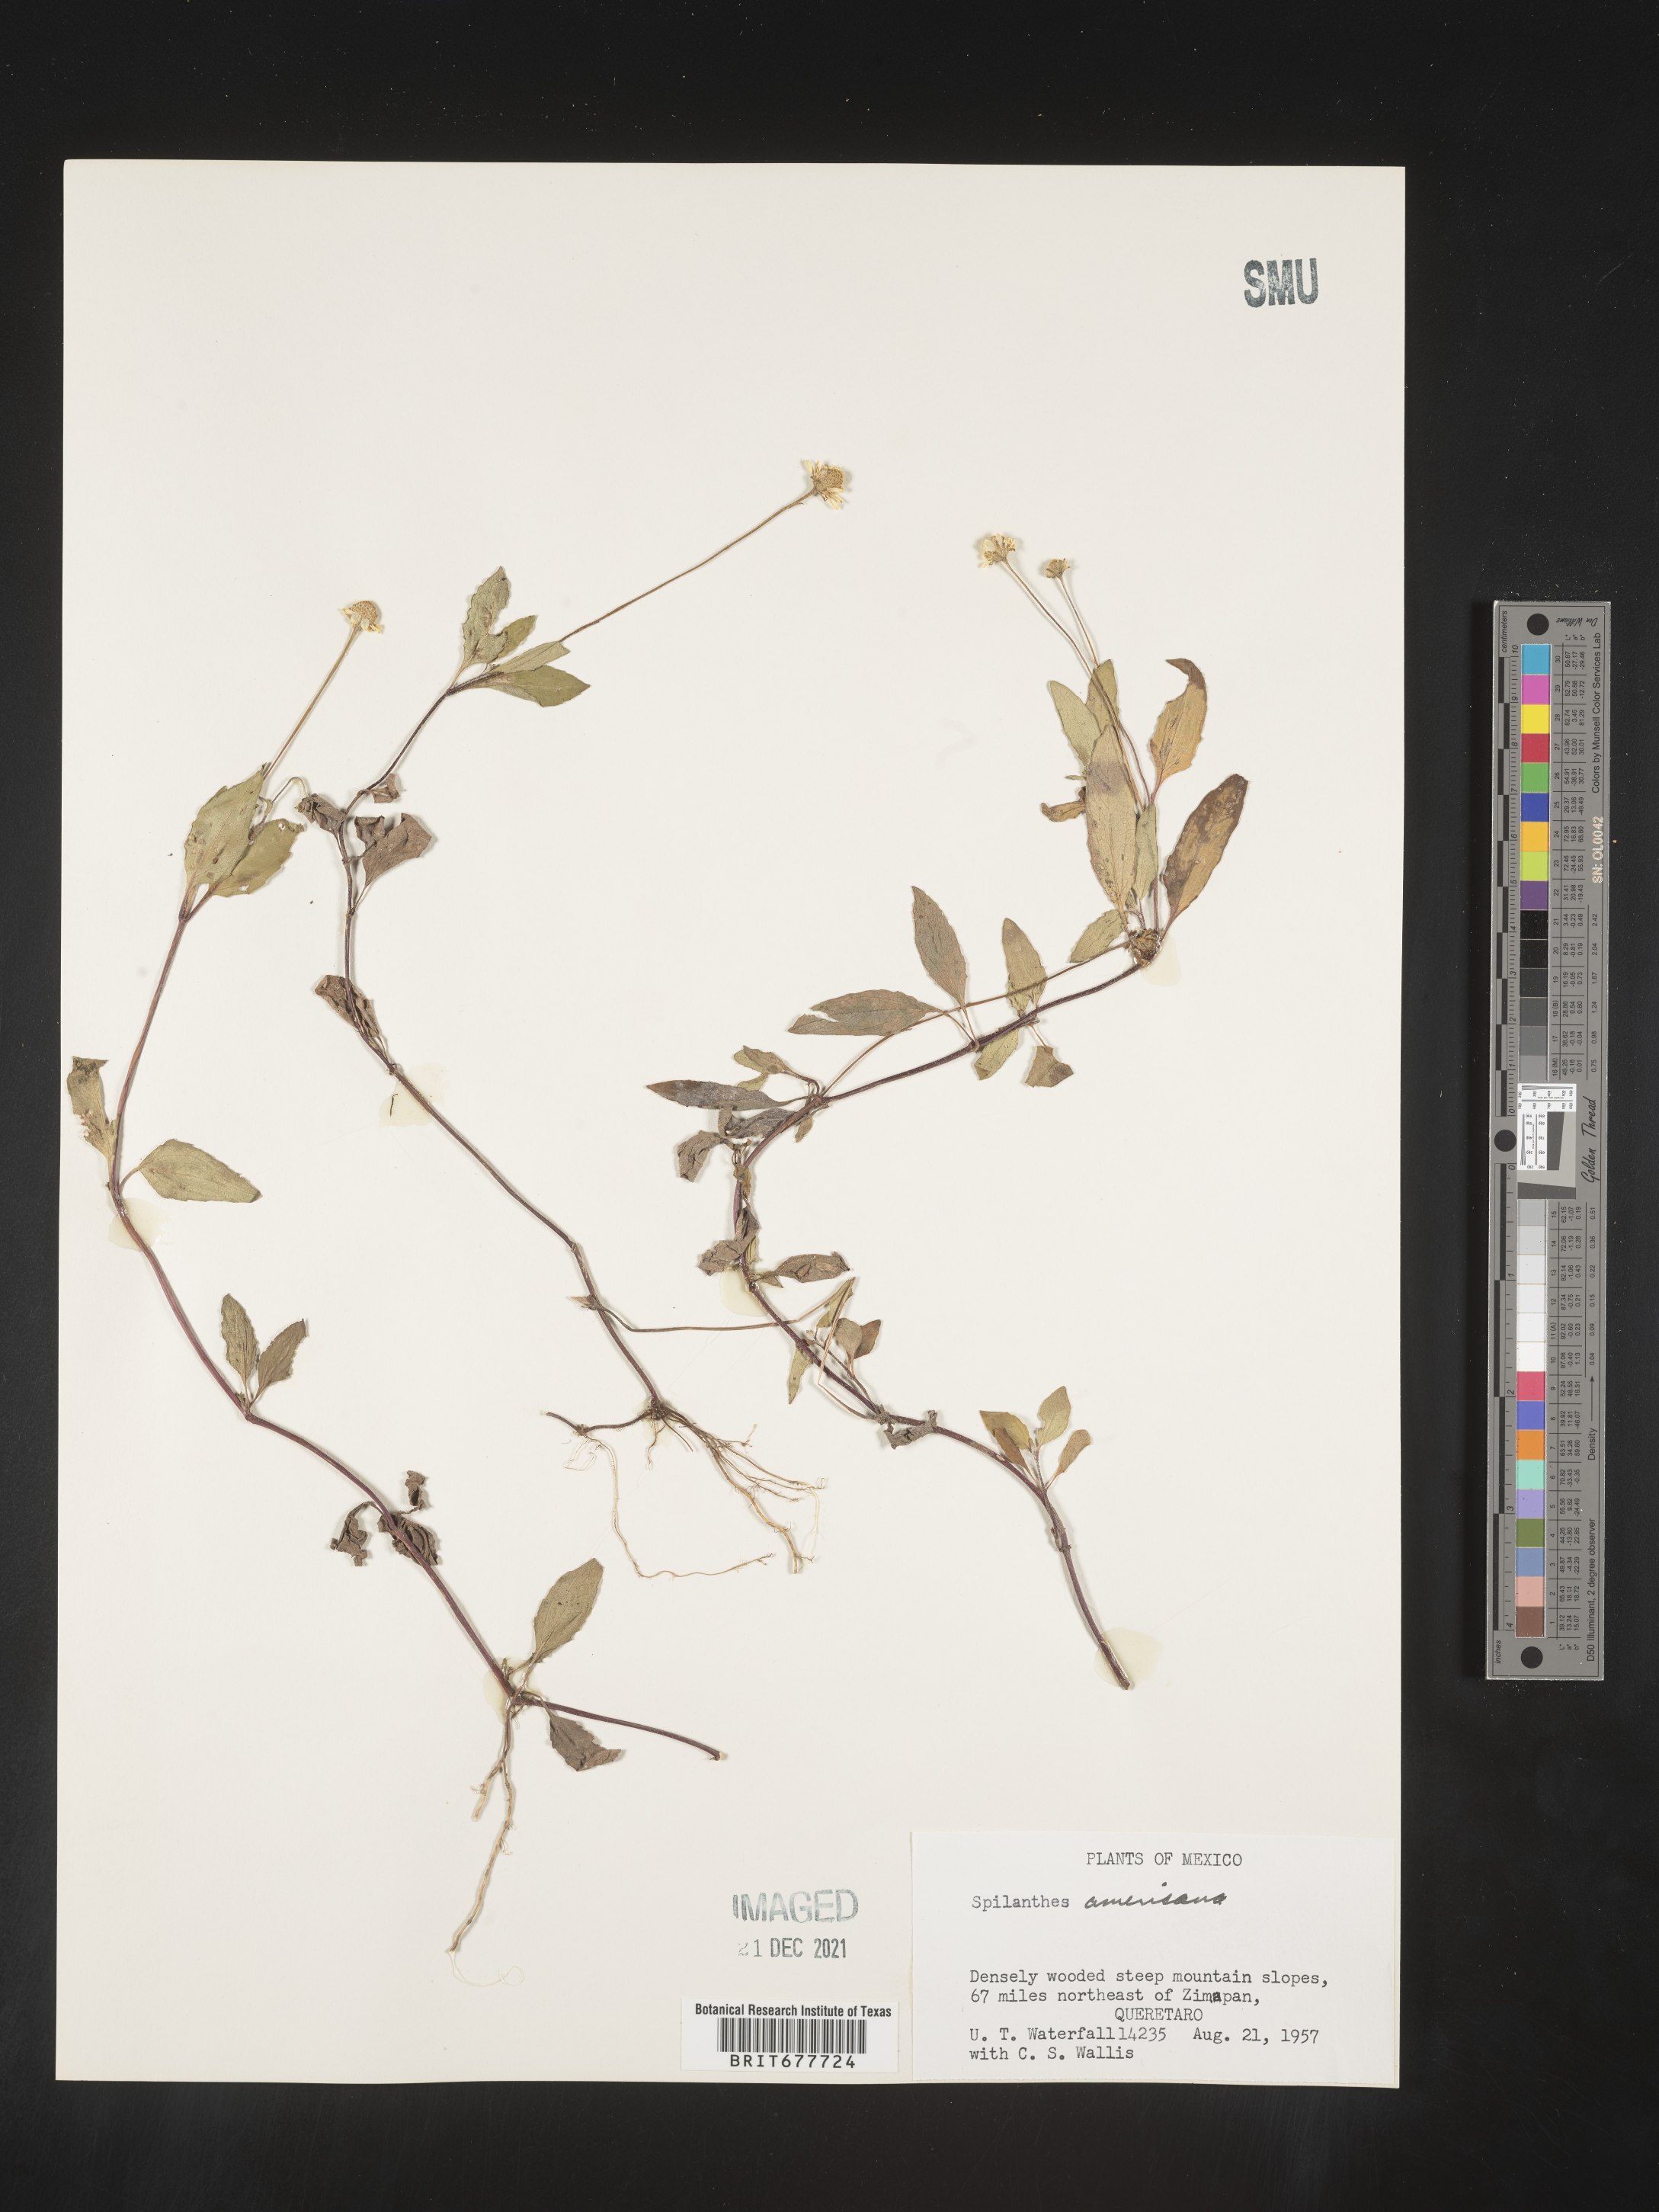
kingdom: Plantae
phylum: Tracheophyta
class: Magnoliopsida
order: Asterales
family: Asteraceae
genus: Spilanthes
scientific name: Spilanthes
